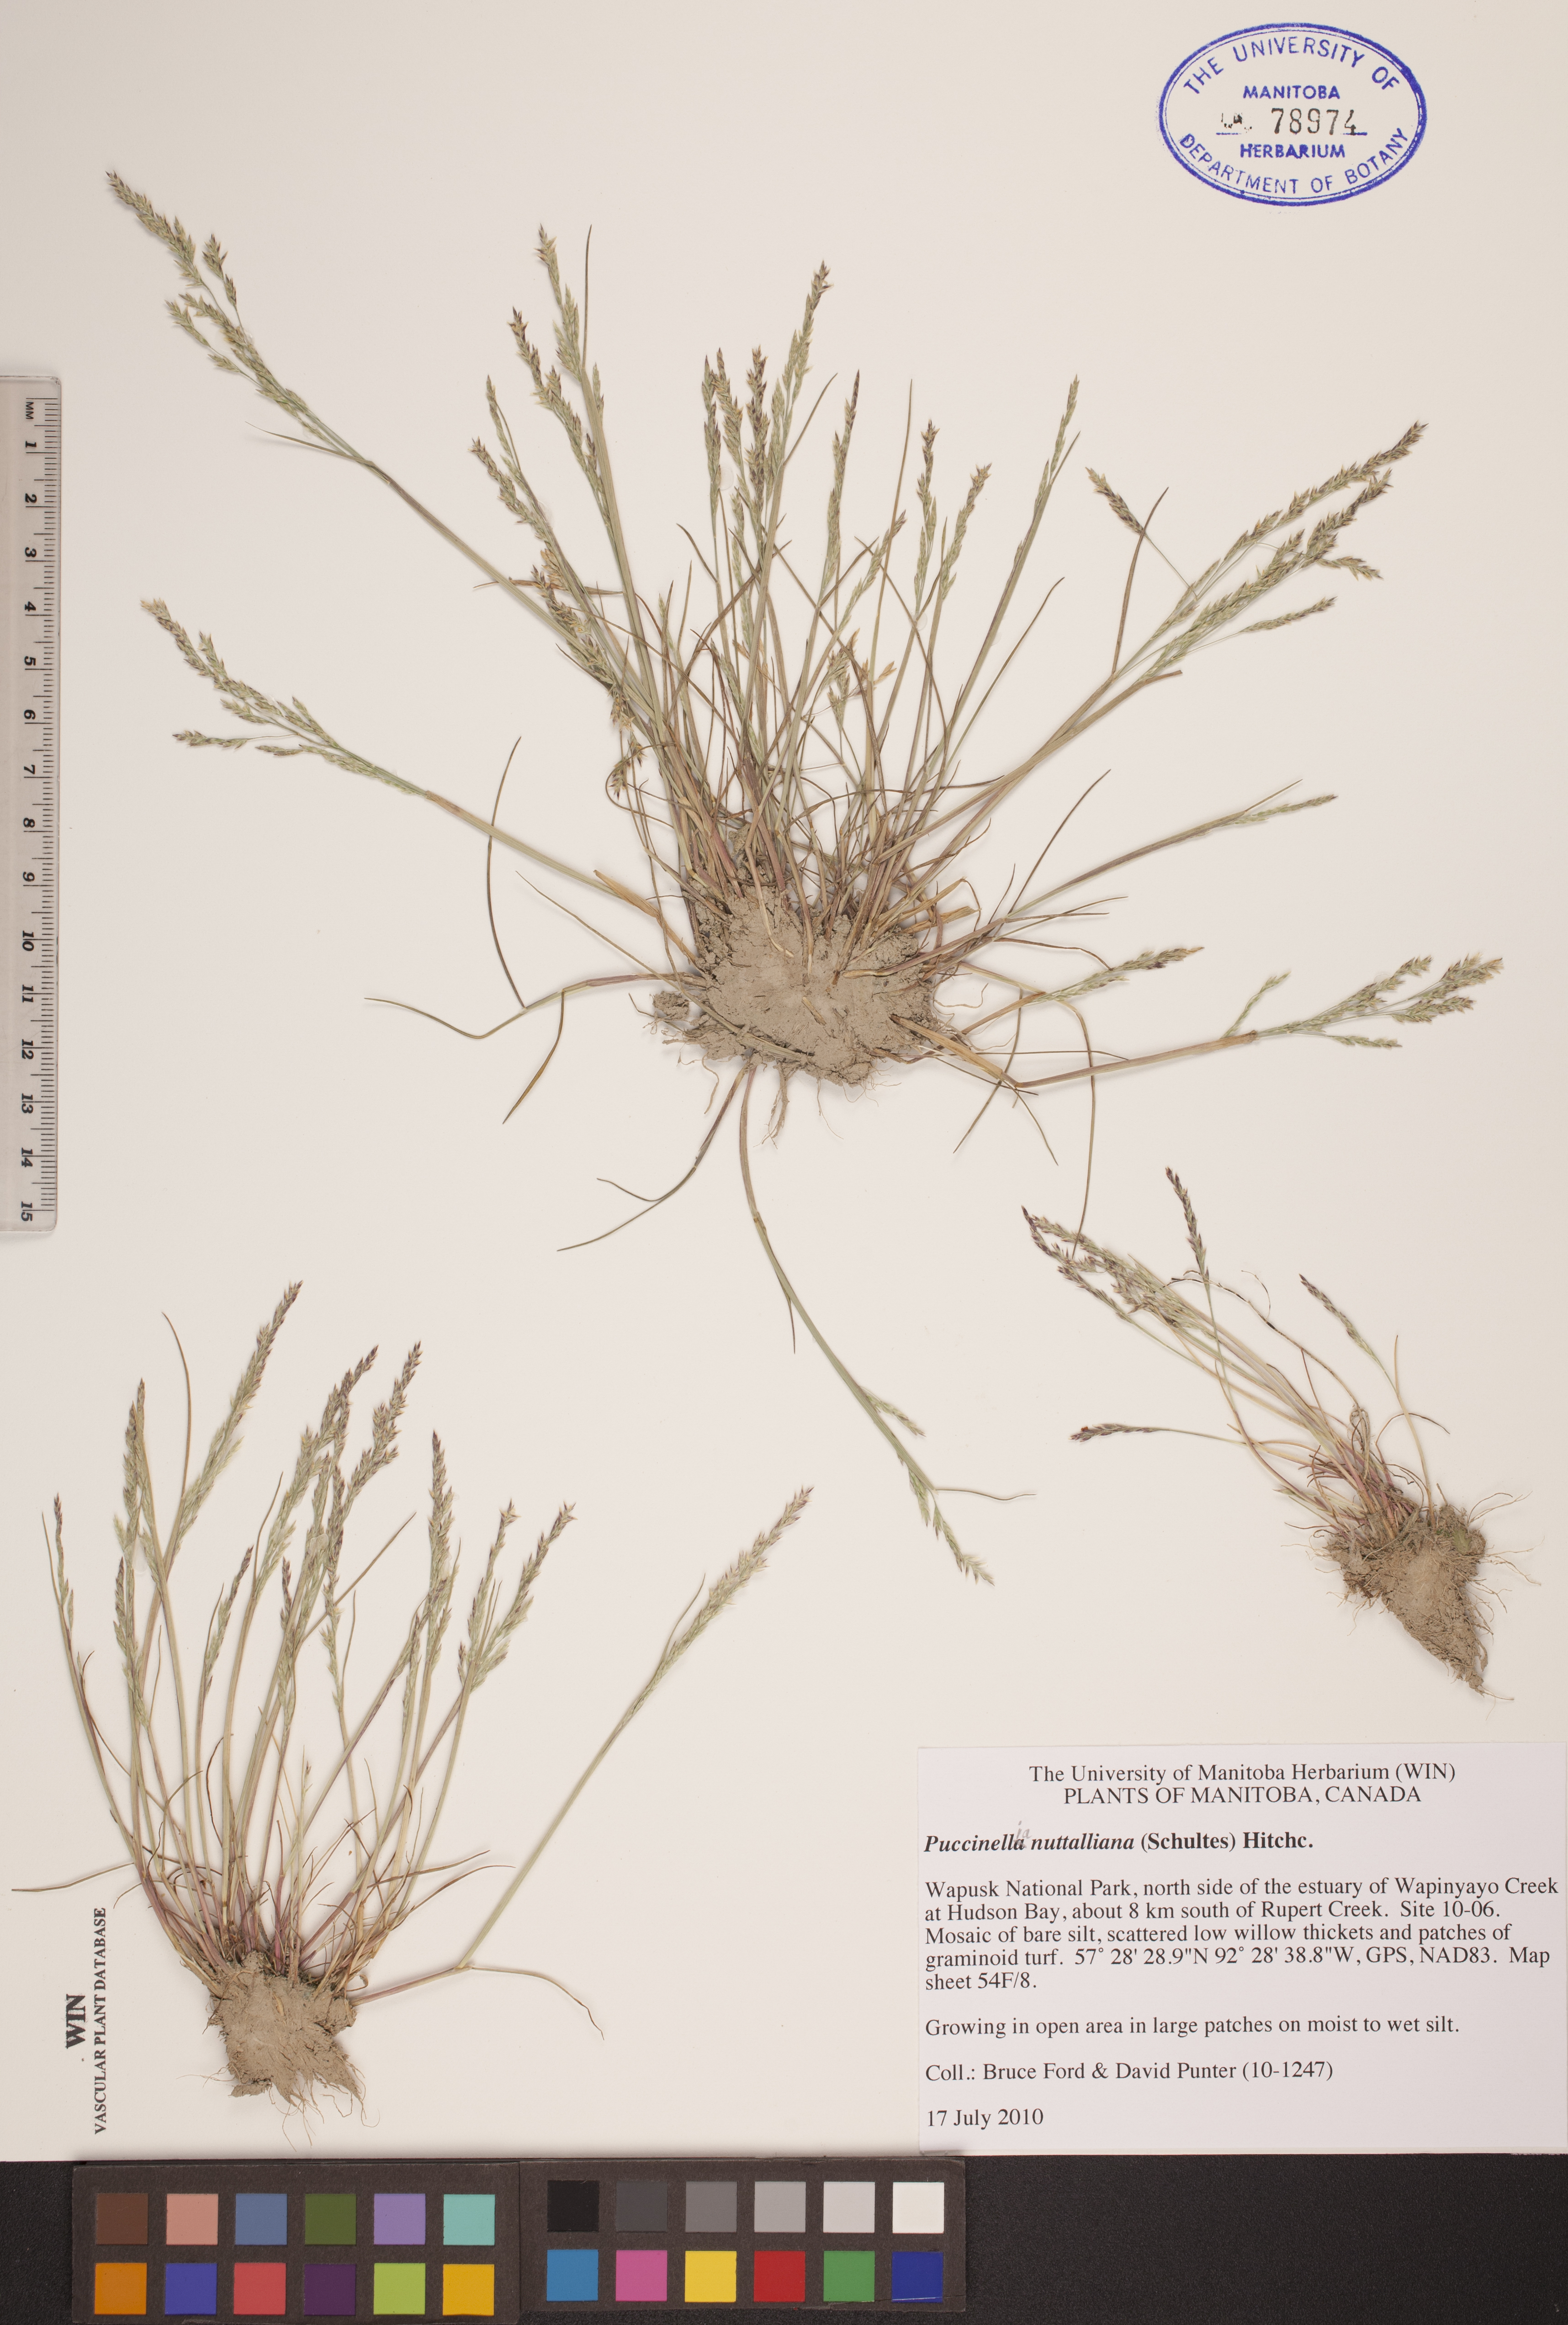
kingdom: Plantae
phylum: Tracheophyta
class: Liliopsida
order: Poales
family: Poaceae
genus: Puccinellia
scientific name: Puccinellia nuttalliana
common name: Nuttall's alkali grass
